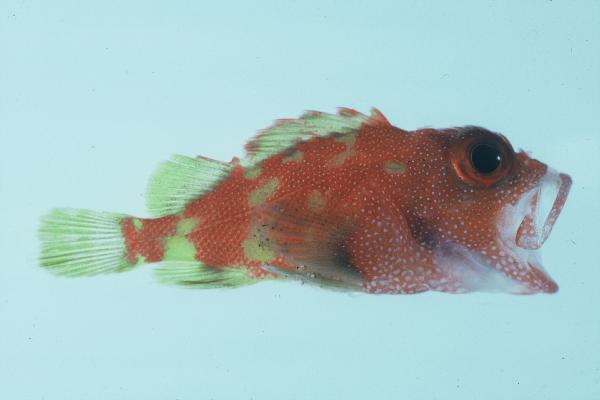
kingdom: Animalia
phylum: Chordata
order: Scorpaeniformes
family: Scorpaenidae
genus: Sebastapistes
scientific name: Sebastapistes cyanostigma
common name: Yellowspotted scorpionfish
